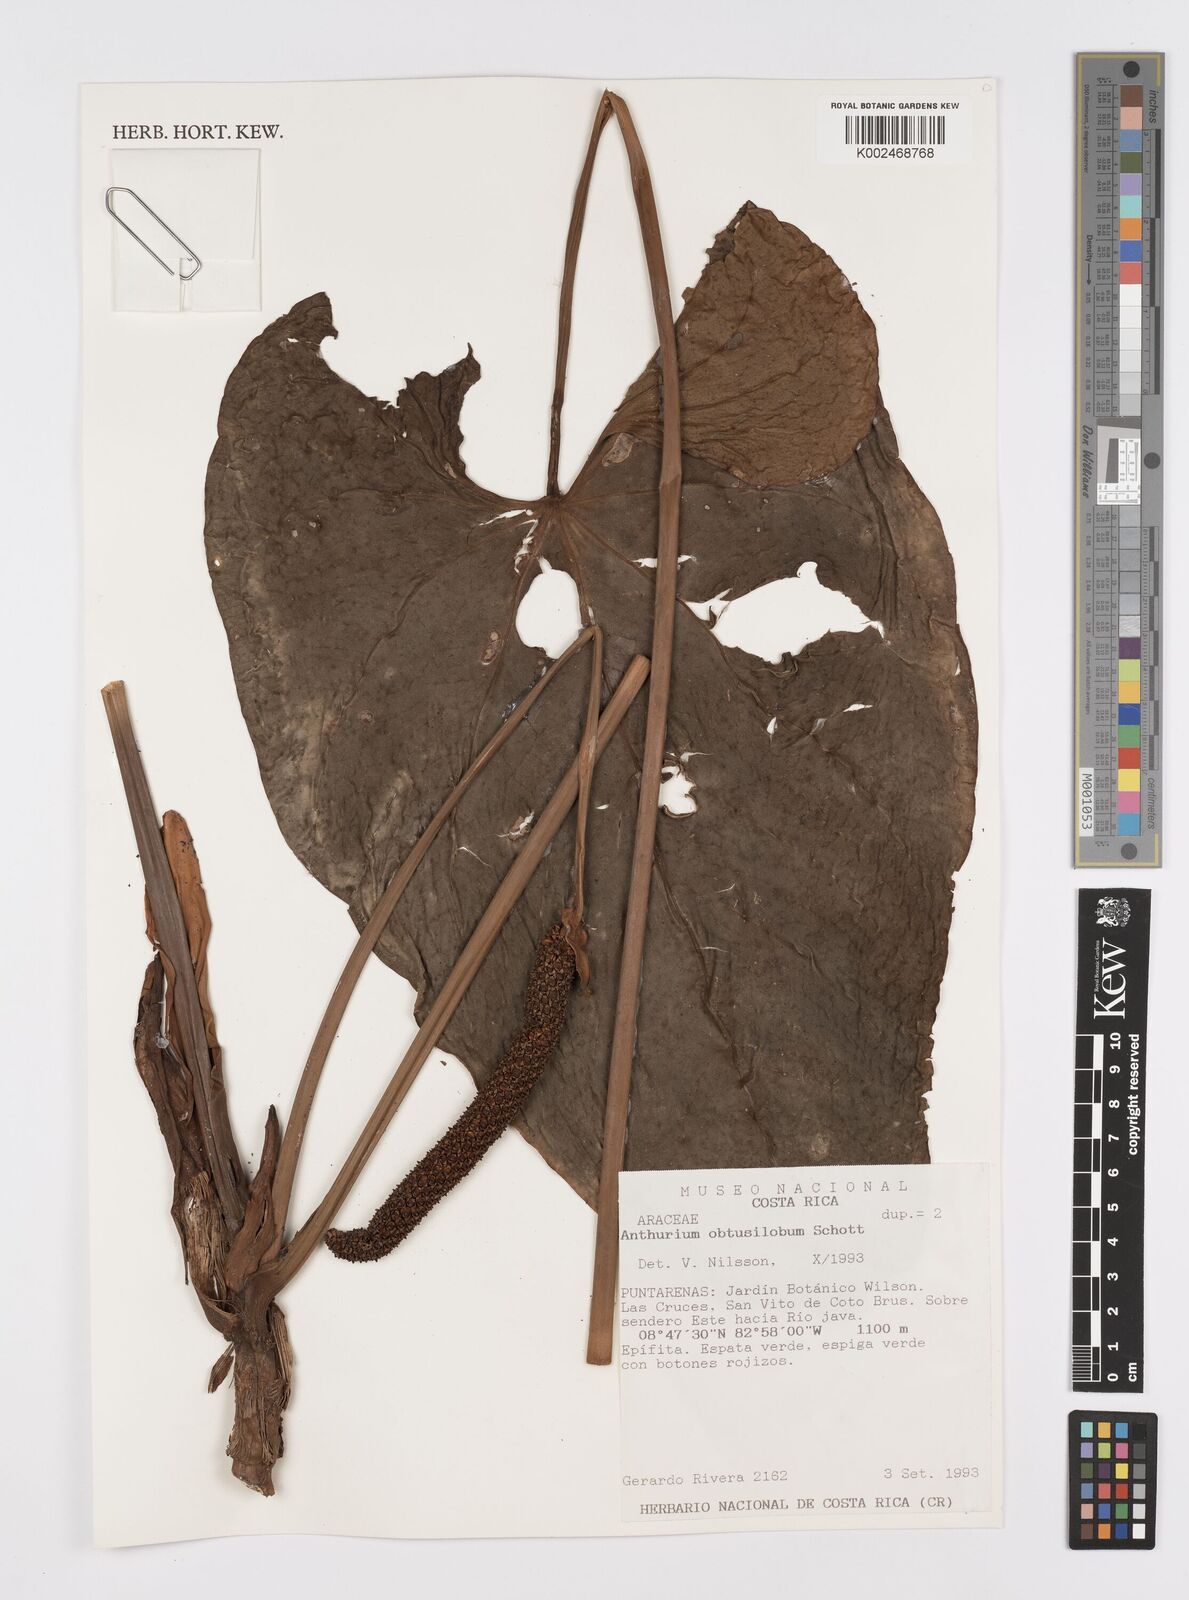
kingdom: Plantae
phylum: Tracheophyta
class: Liliopsida
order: Alismatales
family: Araceae
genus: Anthurium
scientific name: Anthurium obtusilobum
